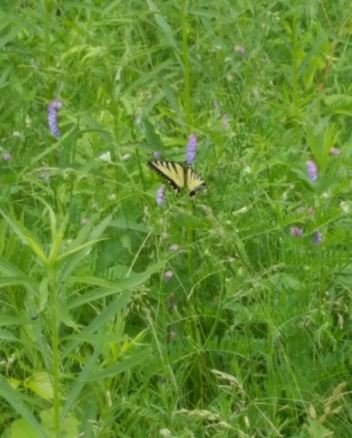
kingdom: Animalia
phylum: Arthropoda
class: Insecta
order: Lepidoptera
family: Papilionidae
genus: Pterourus
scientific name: Pterourus glaucus
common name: Eastern Tiger Swallowtail
